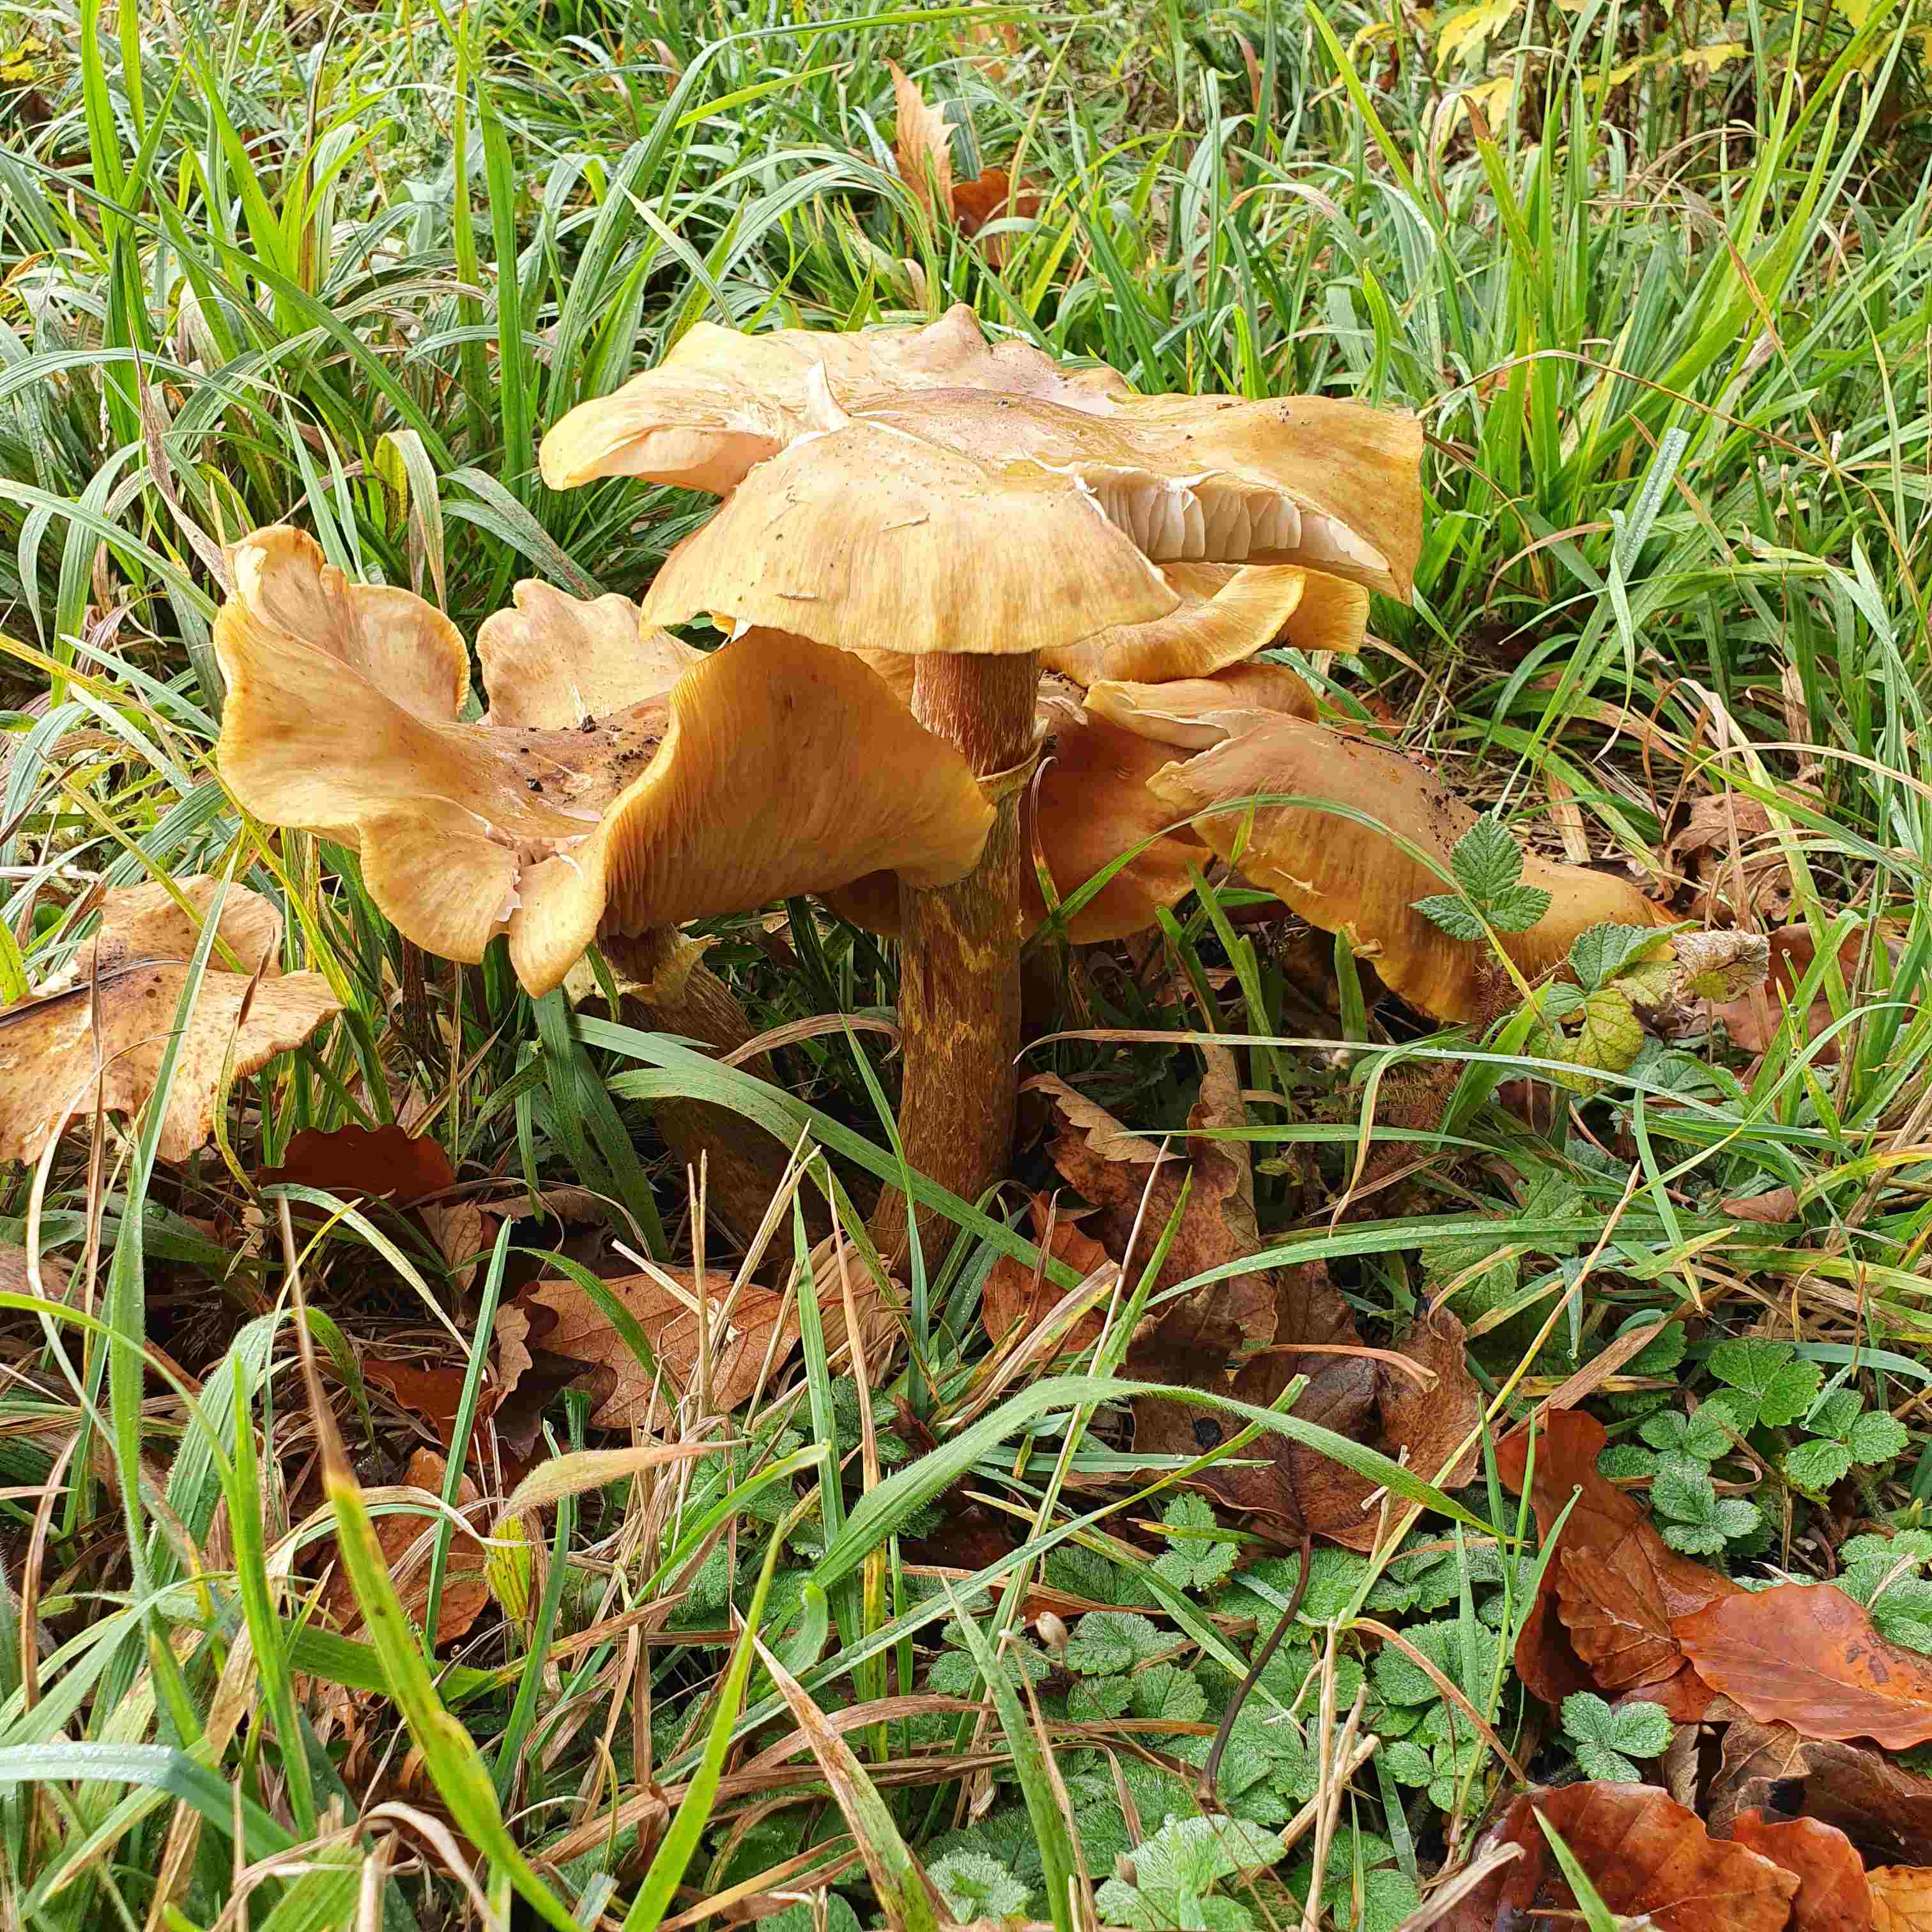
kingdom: Fungi
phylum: Basidiomycota
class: Agaricomycetes
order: Agaricales
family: Tricholomataceae
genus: Phaeolepiota
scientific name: Phaeolepiota aurea
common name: gyldenhat
